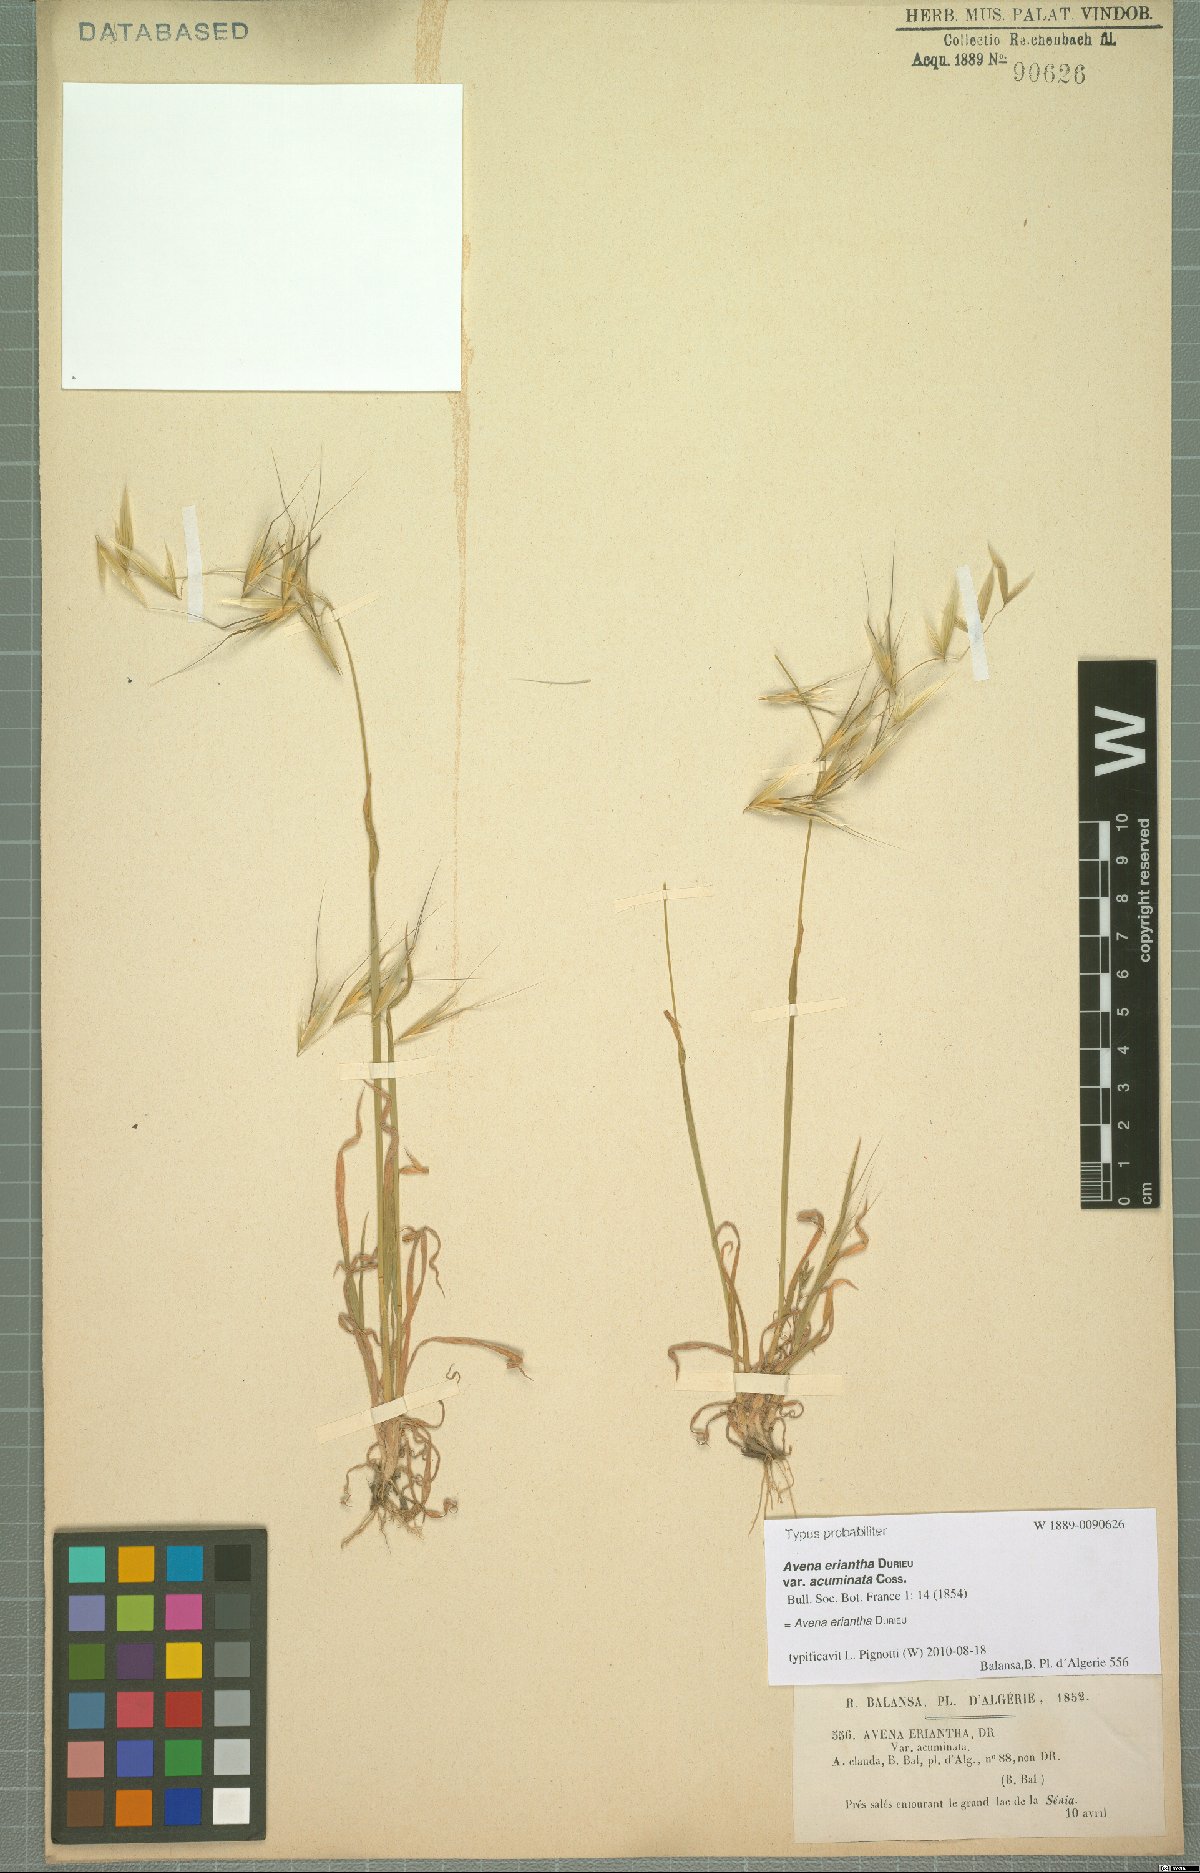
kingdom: Plantae
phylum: Tracheophyta
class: Liliopsida
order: Poales
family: Poaceae
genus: Avena
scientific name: Avena eriantha
